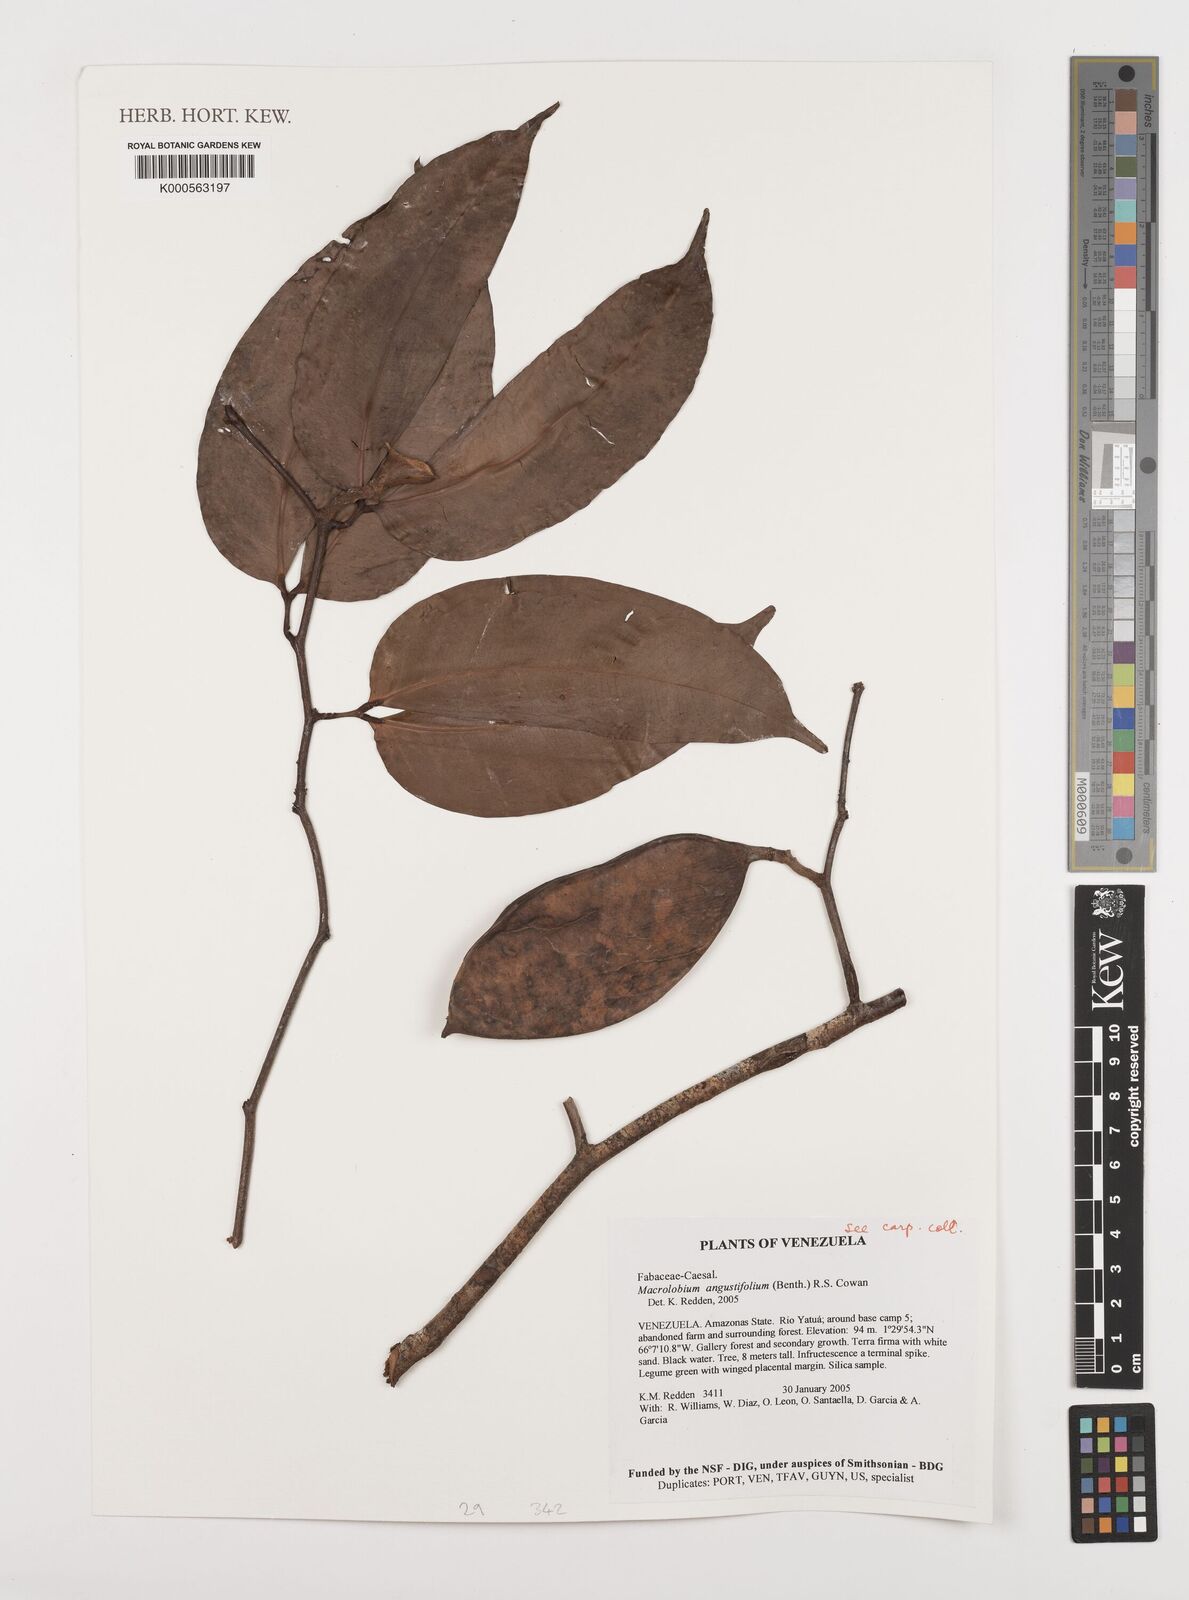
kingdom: Plantae
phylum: Tracheophyta
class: Magnoliopsida
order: Fabales
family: Fabaceae
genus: Macrolobium
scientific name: Macrolobium angustifolium
